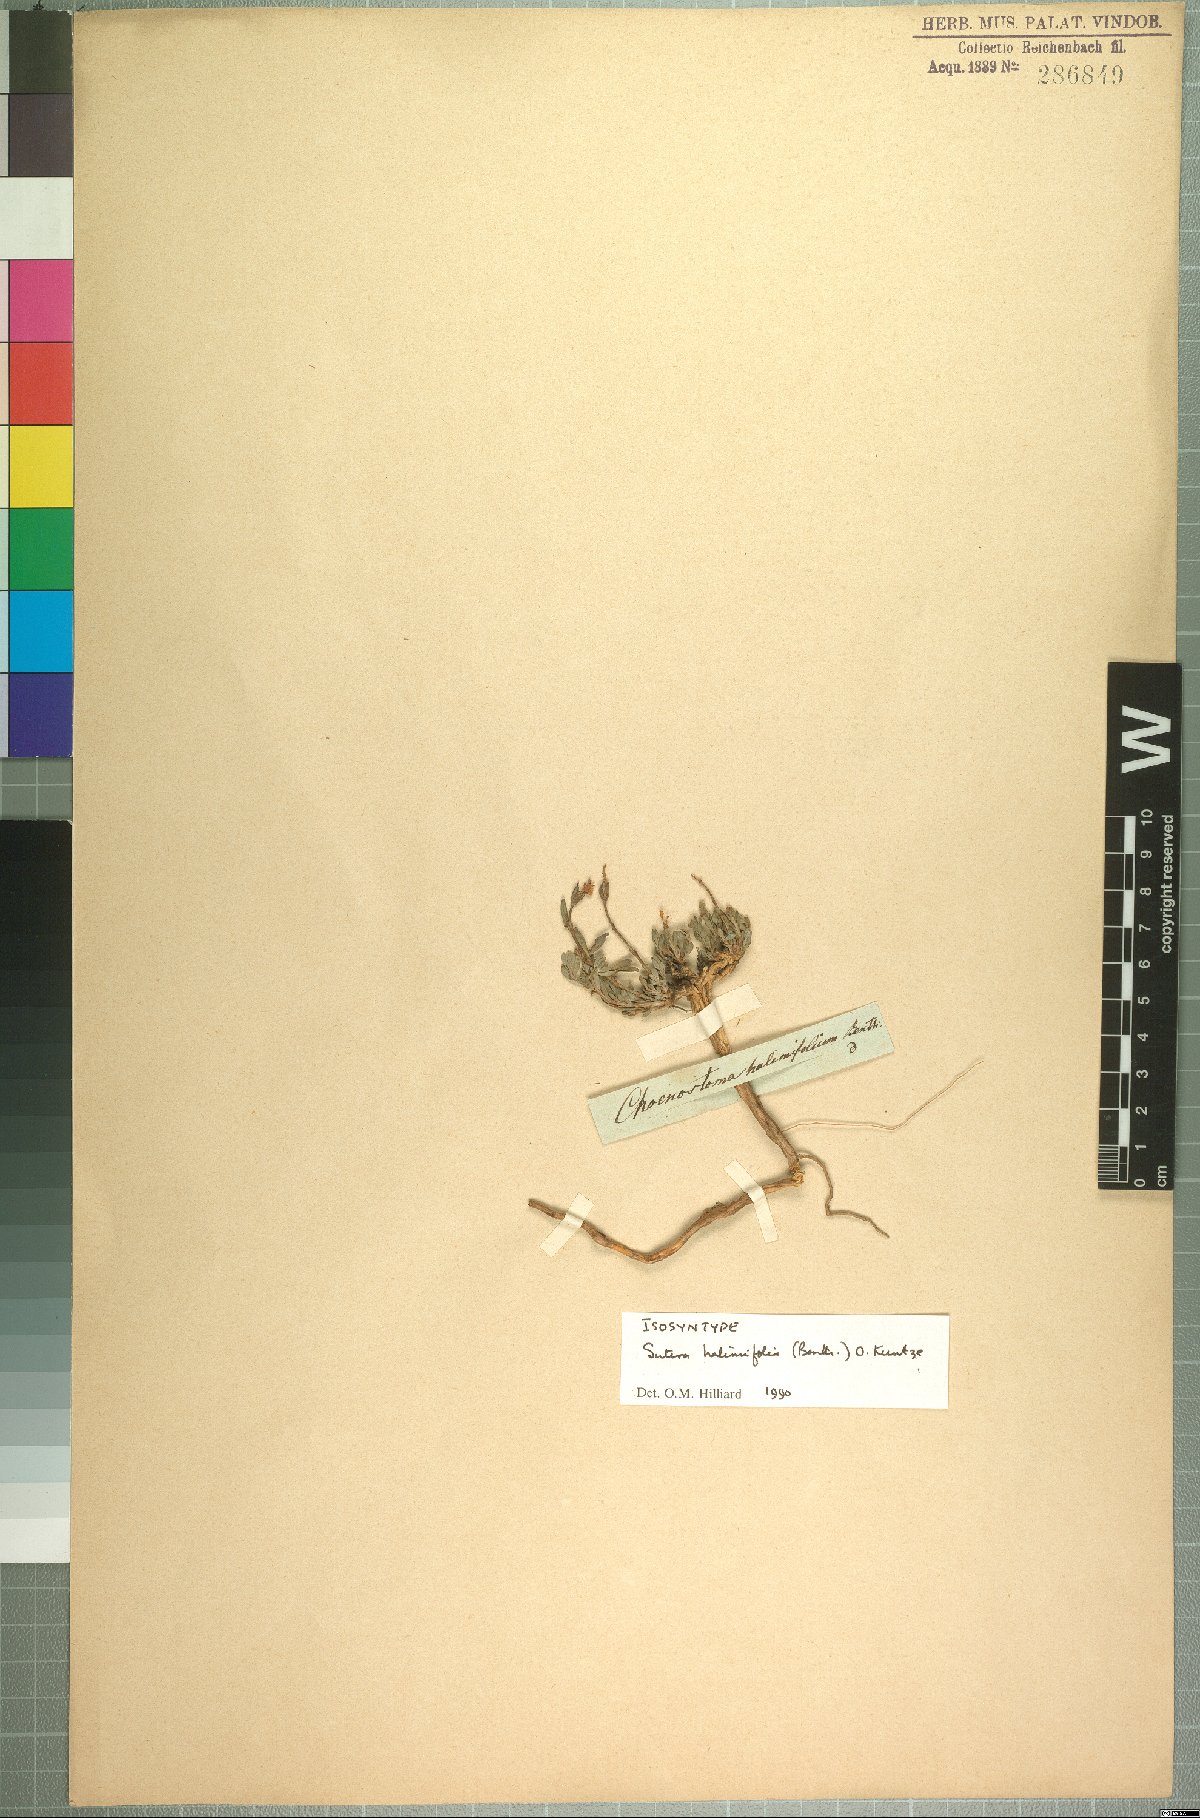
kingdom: Plantae
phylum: Tracheophyta
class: Magnoliopsida
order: Lamiales
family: Scrophulariaceae
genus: Chaenostoma
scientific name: Chaenostoma halimifolium
